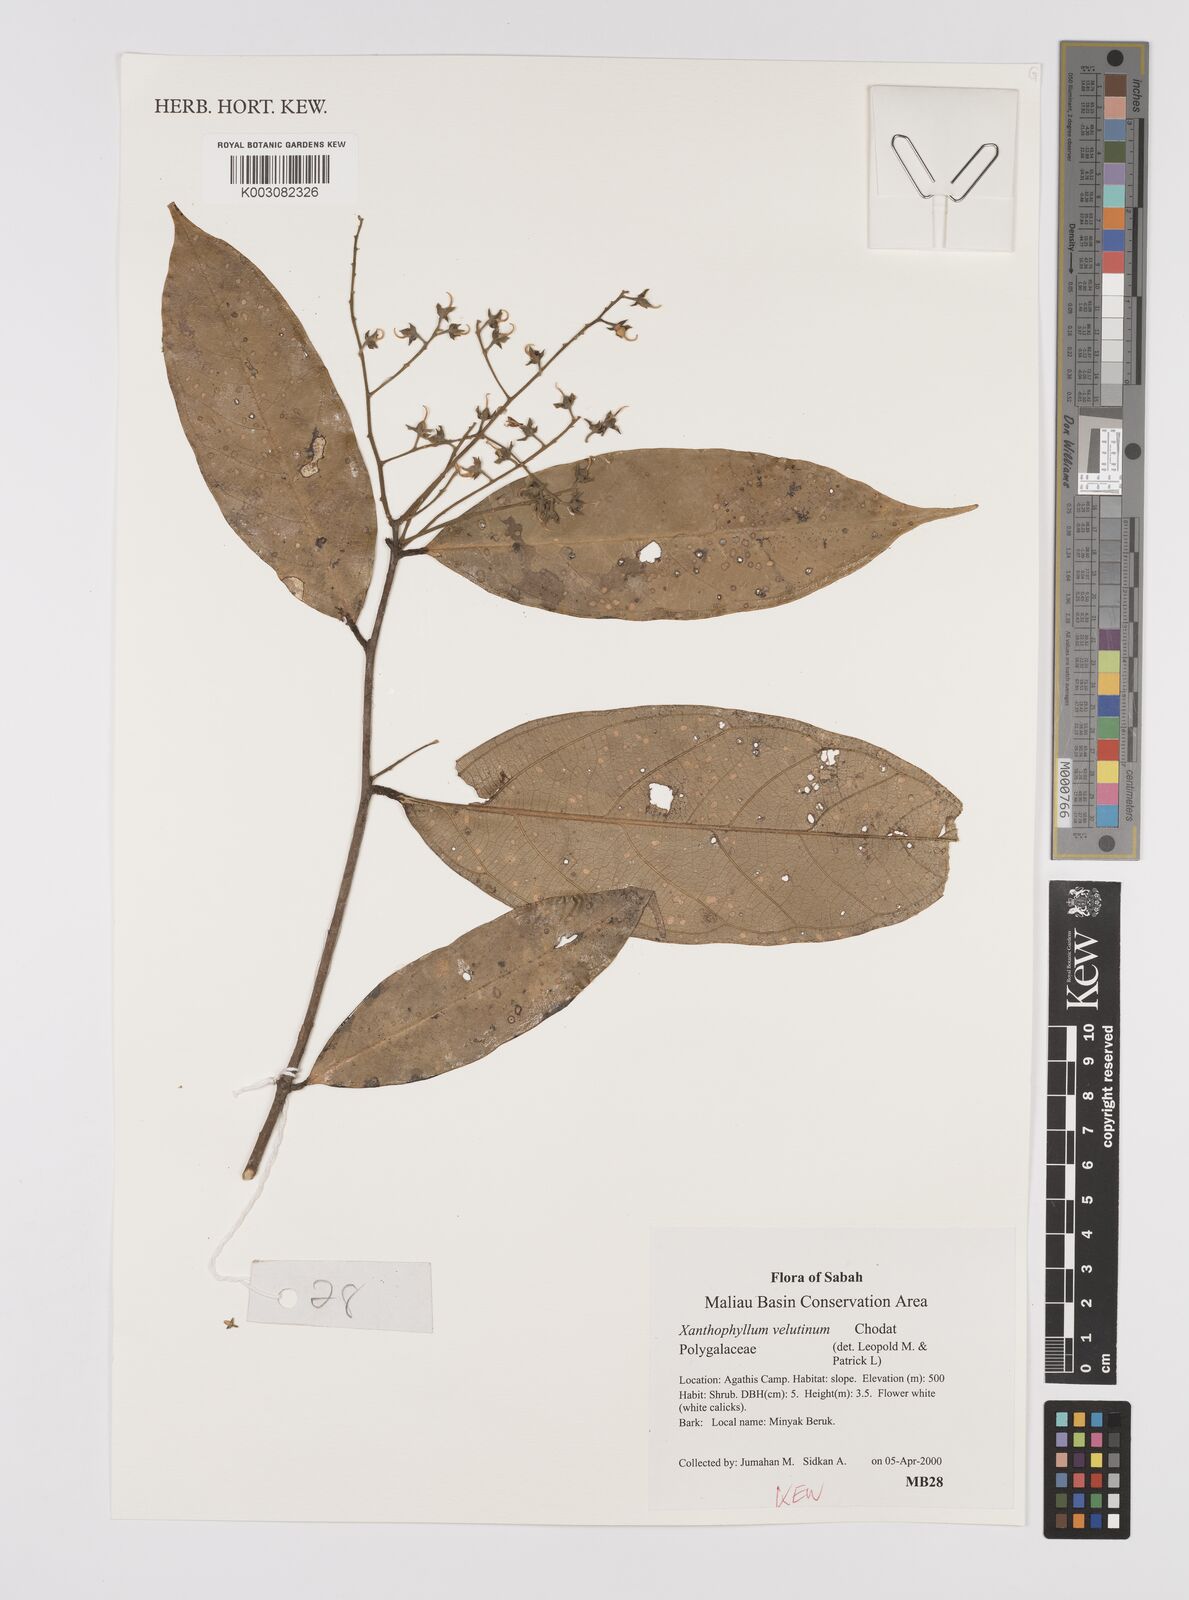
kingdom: Plantae
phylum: Tracheophyta
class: Magnoliopsida
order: Fabales
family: Polygalaceae
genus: Xanthophyllum
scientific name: Xanthophyllum velutinum
